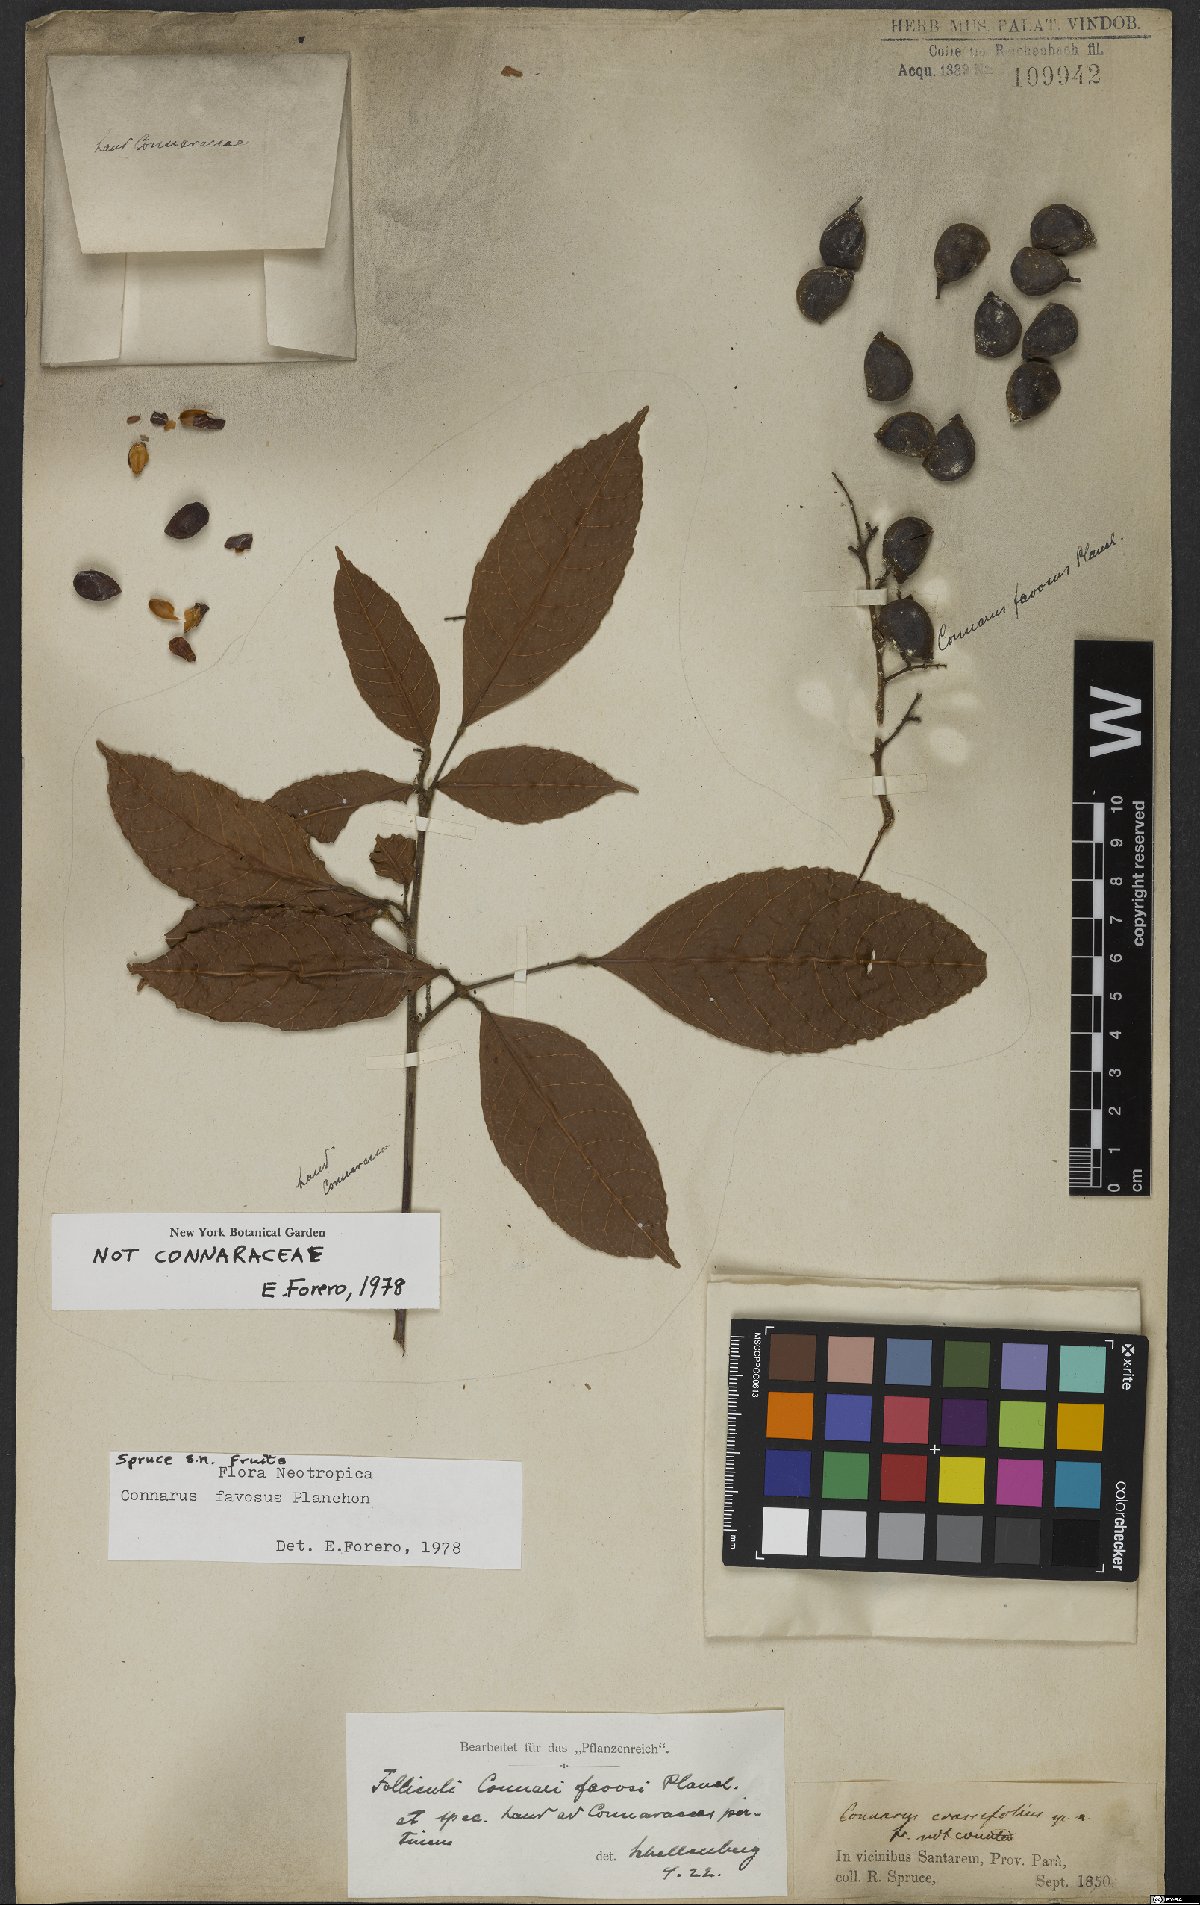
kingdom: Plantae
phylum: Tracheophyta
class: Magnoliopsida
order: Oxalidales
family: Connaraceae
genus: Connarus
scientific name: Connarus favosus
